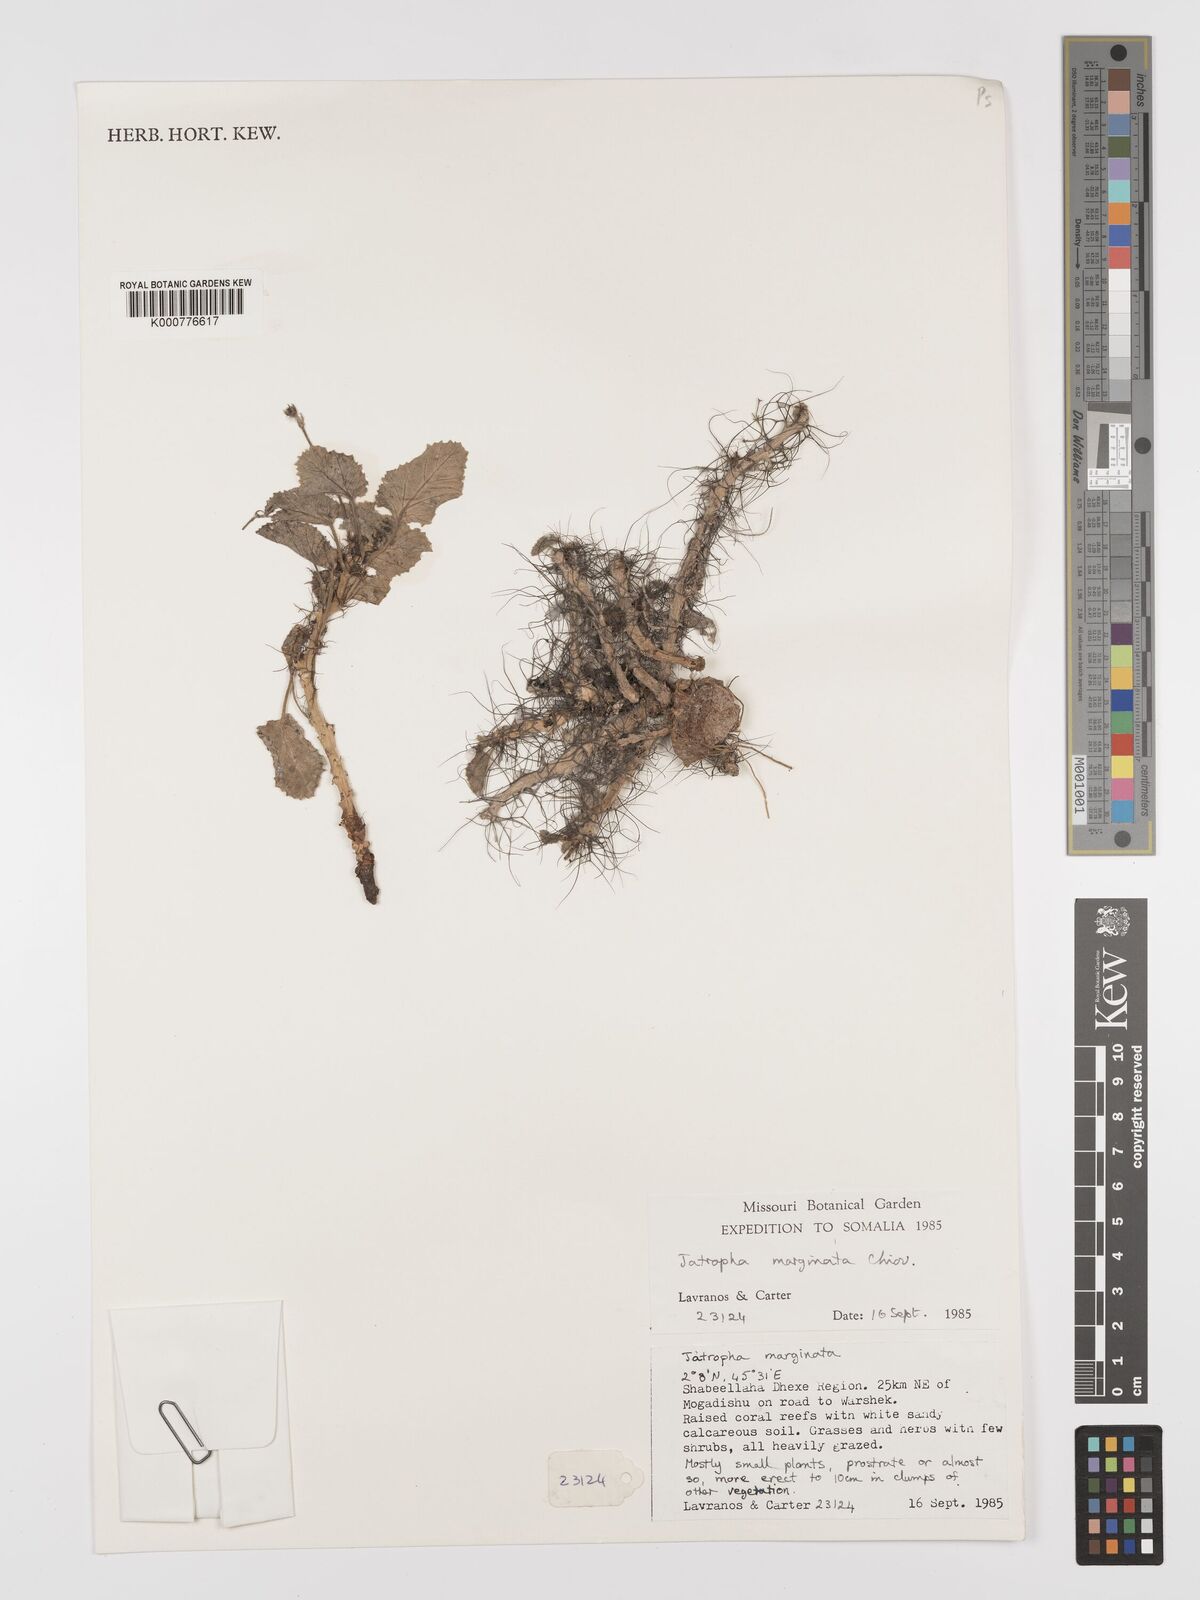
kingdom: Plantae
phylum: Tracheophyta
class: Magnoliopsida
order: Malpighiales
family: Euphorbiaceae
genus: Jatropha
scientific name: Jatropha
